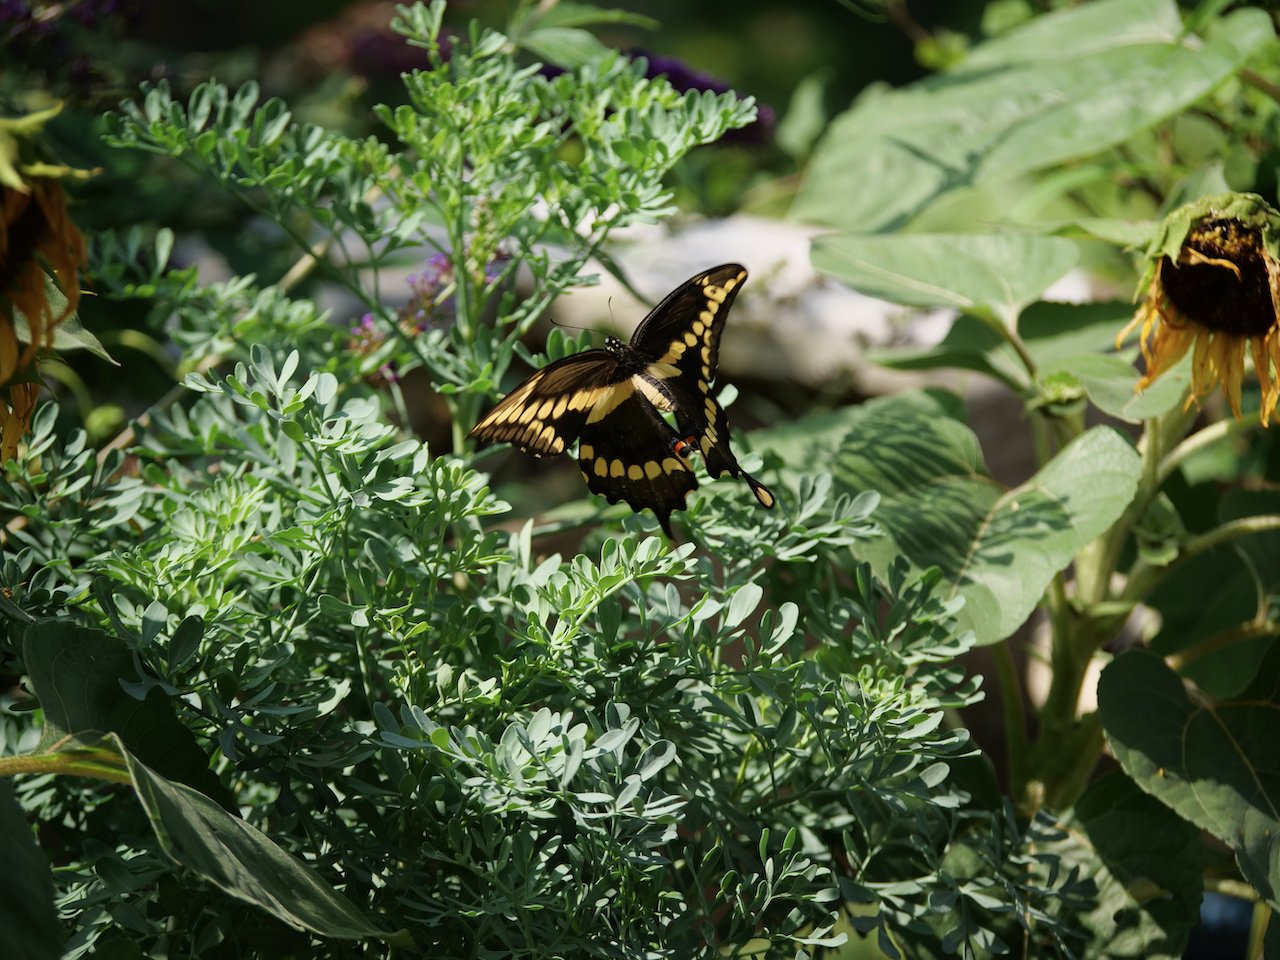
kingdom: Animalia
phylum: Arthropoda
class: Insecta
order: Lepidoptera
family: Papilionidae
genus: Papilio
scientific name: Papilio cresphontes
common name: Eastern Giant Swallowtail
